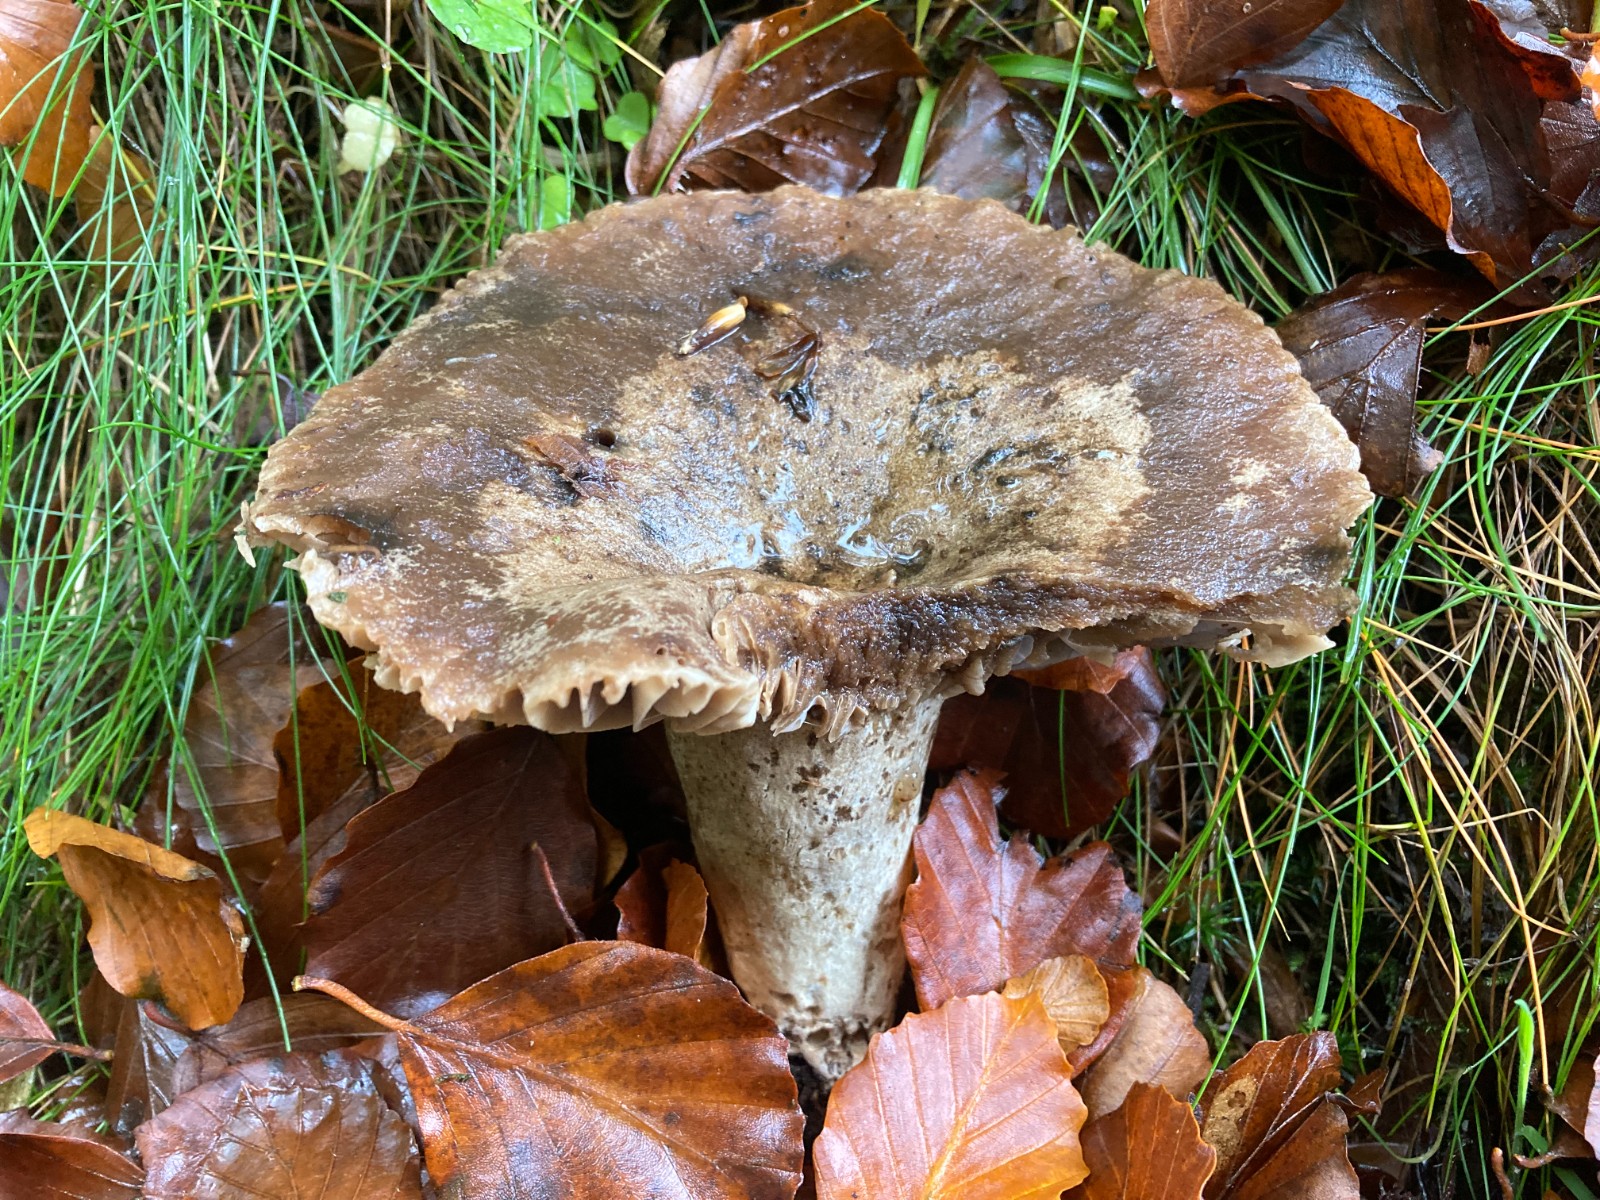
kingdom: Fungi
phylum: Basidiomycota
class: Agaricomycetes
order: Russulales
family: Russulaceae
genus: Russula
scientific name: Russula adusta
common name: sværtende skørhat
